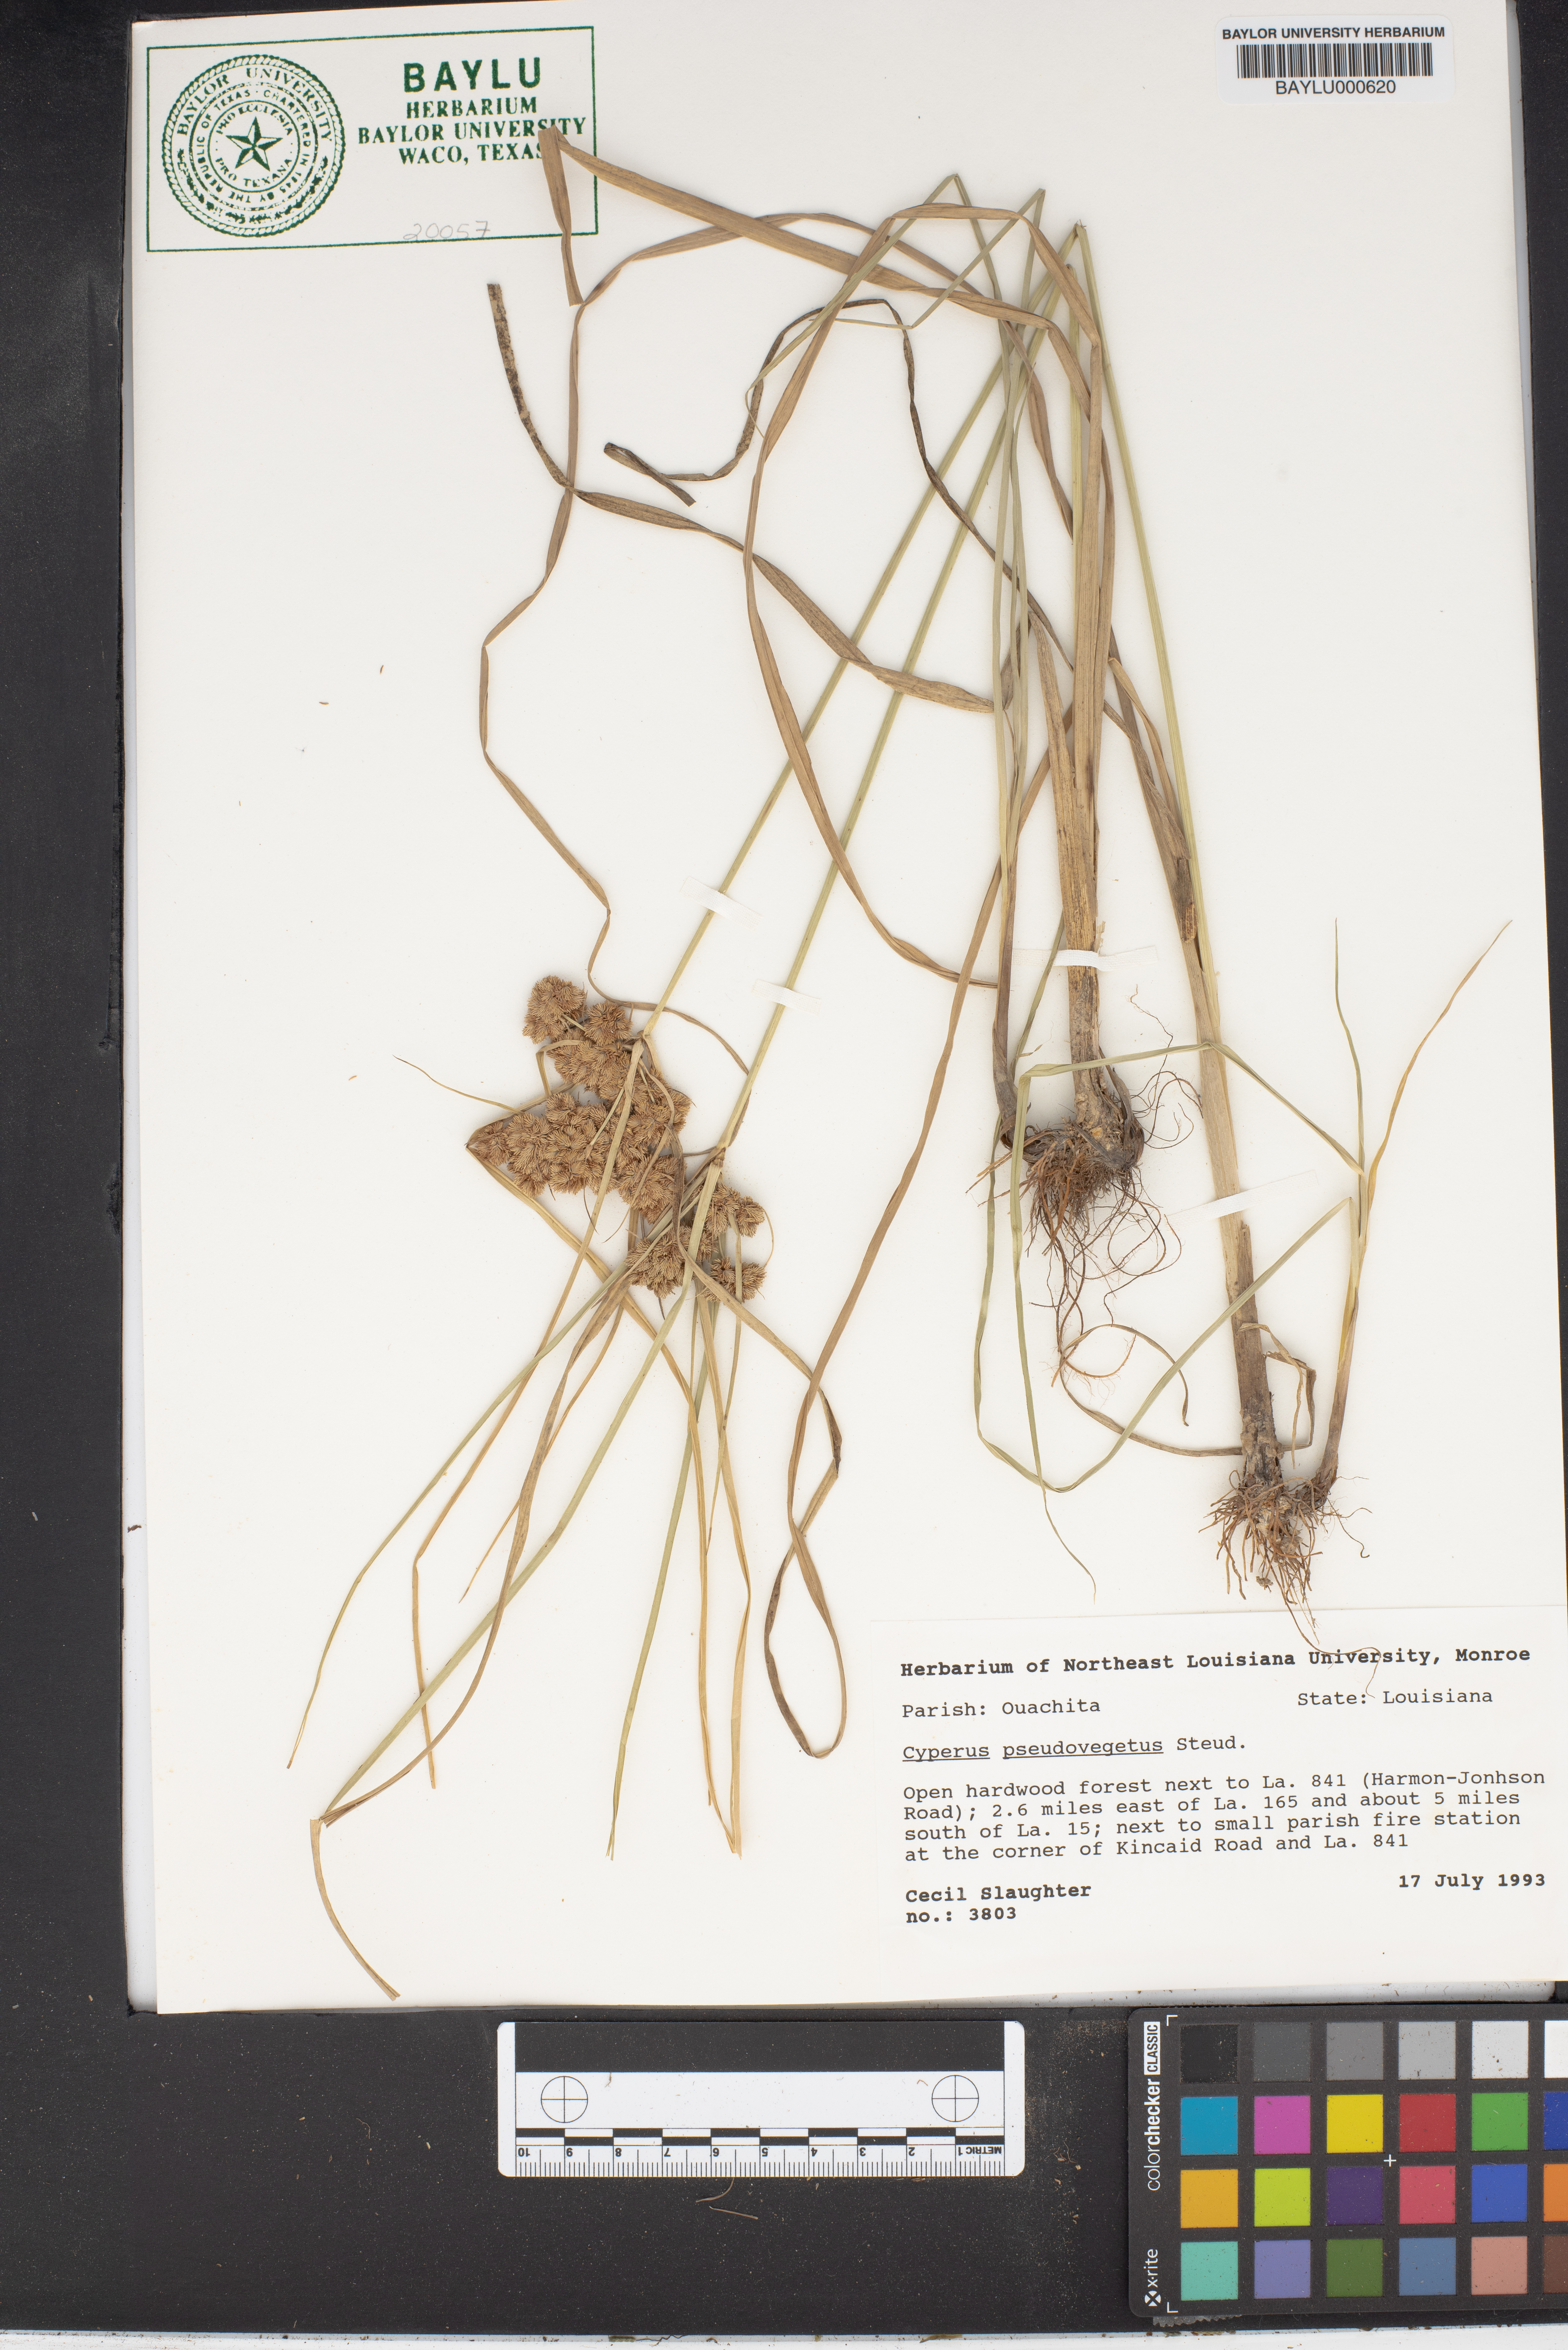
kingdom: Plantae
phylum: Tracheophyta
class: Liliopsida
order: Poales
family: Cyperaceae
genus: Cyperus
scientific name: Cyperus pseudovegetus
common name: Marsh flat sedge
